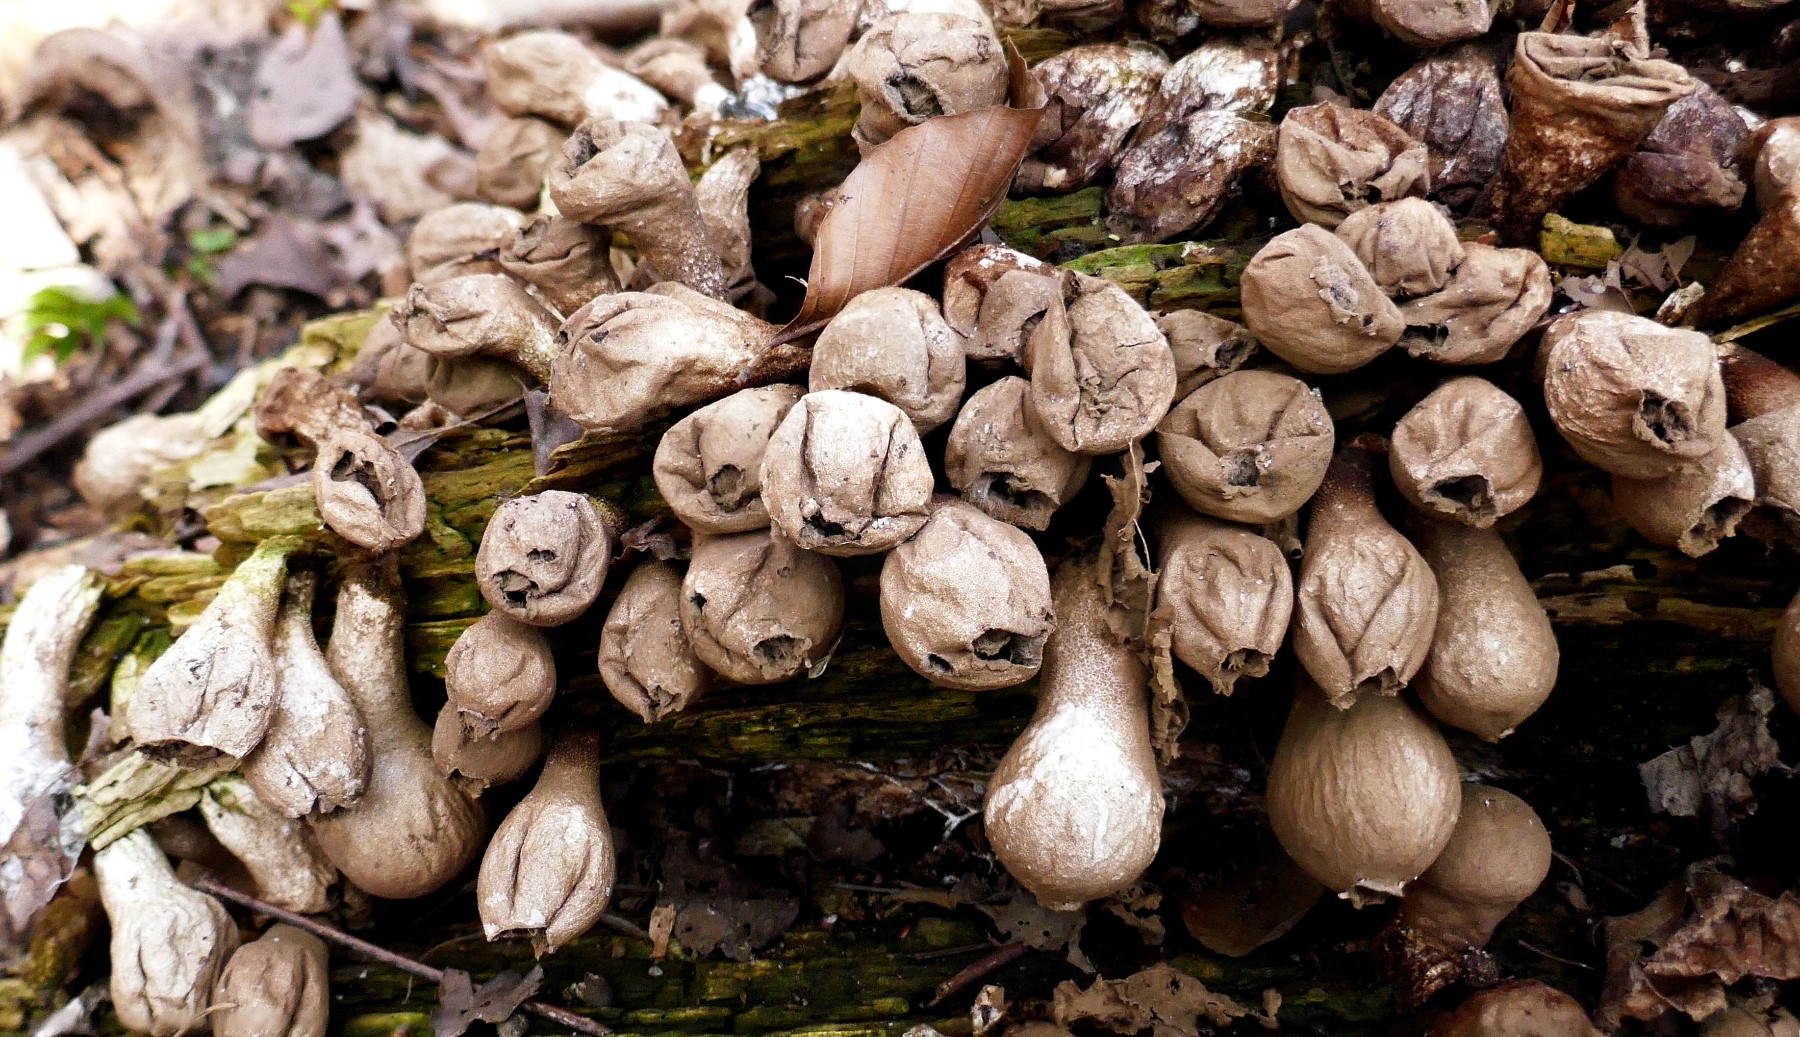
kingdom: Fungi
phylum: Basidiomycota
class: Agaricomycetes
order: Agaricales
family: Lycoperdaceae
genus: Apioperdon
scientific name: Apioperdon pyriforme
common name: pære-støvbold
